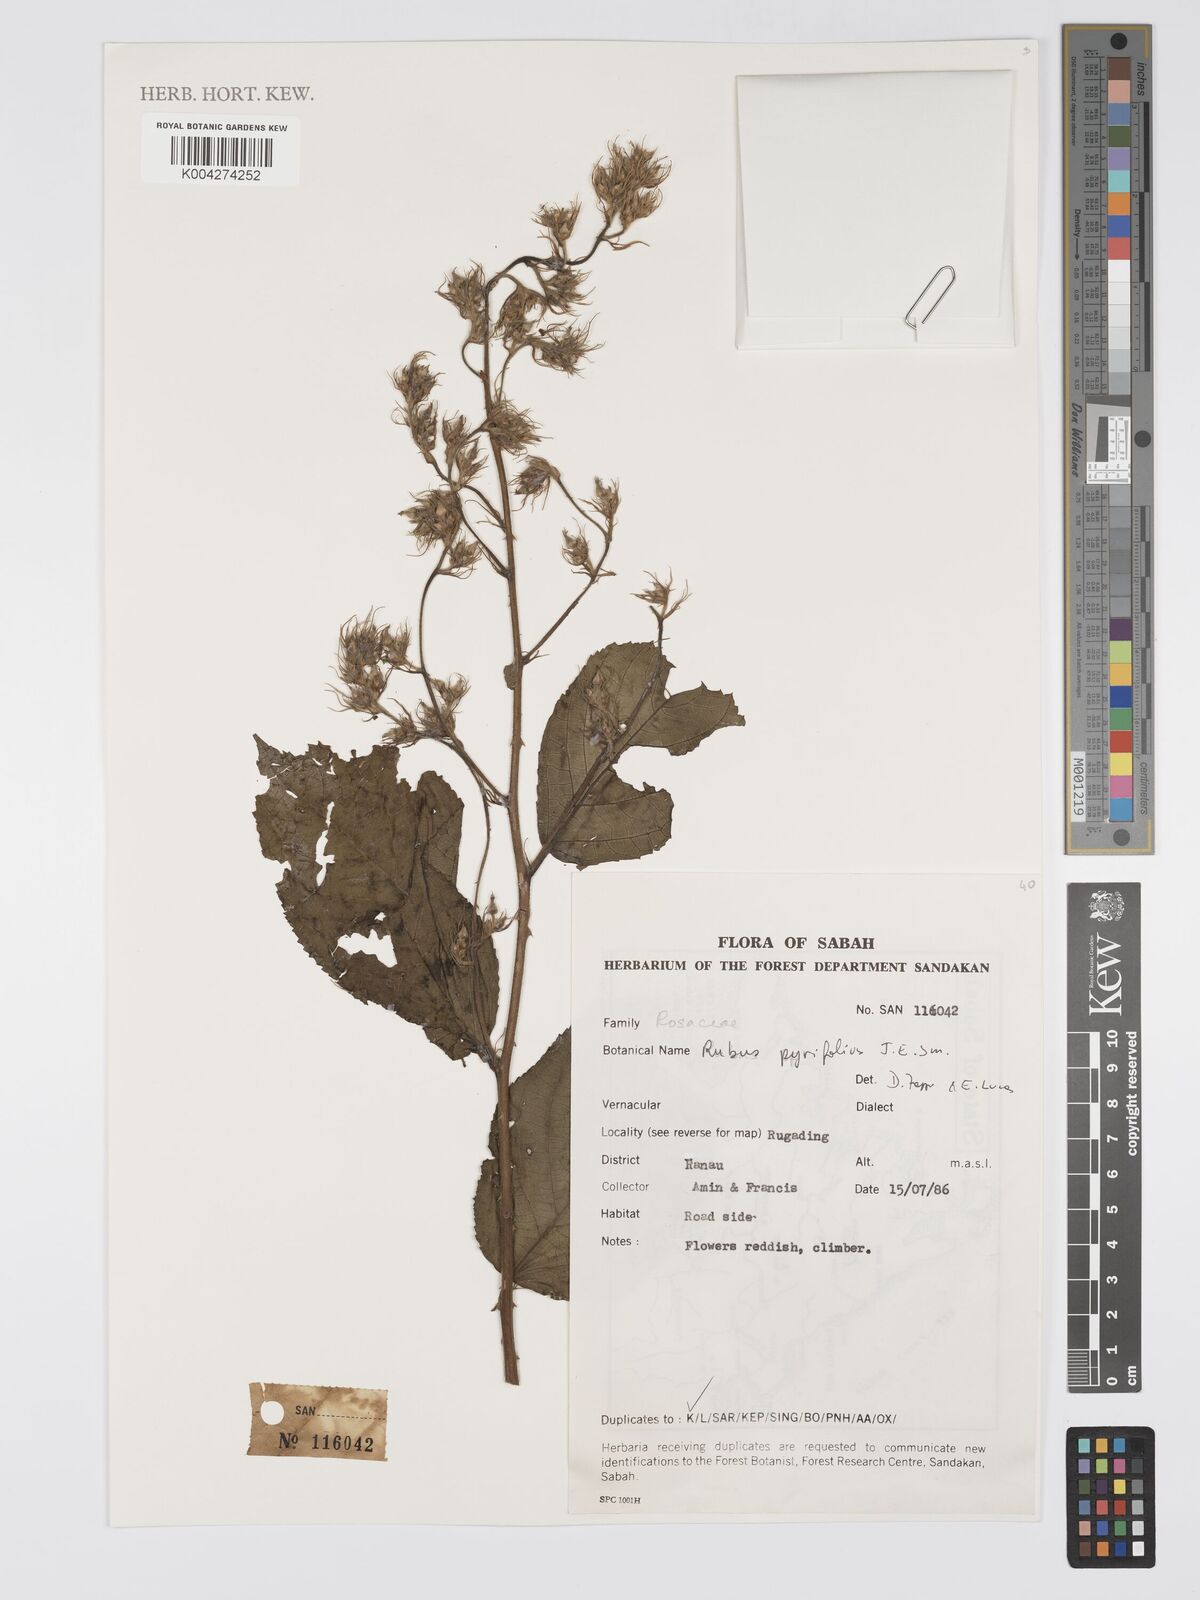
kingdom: Plantae
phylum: Tracheophyta
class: Magnoliopsida
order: Rosales
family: Rosaceae
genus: Rubus
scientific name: Rubus pirifolius
